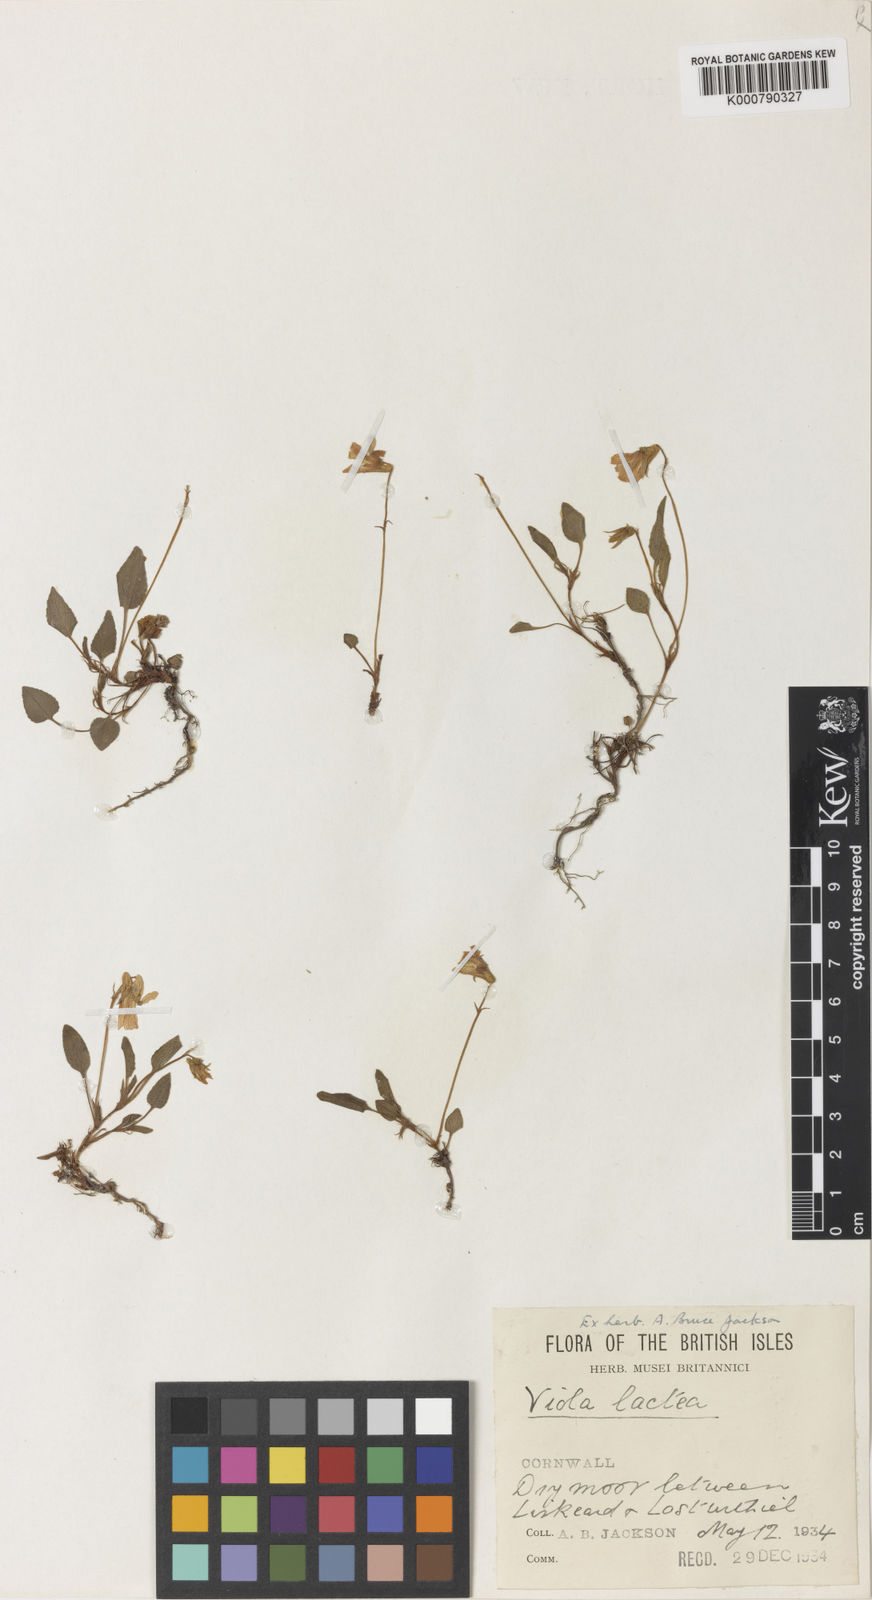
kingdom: Plantae
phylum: Tracheophyta
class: Magnoliopsida
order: Malpighiales
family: Violaceae
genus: Viola
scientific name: Viola lactea
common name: Pale dog-violet
